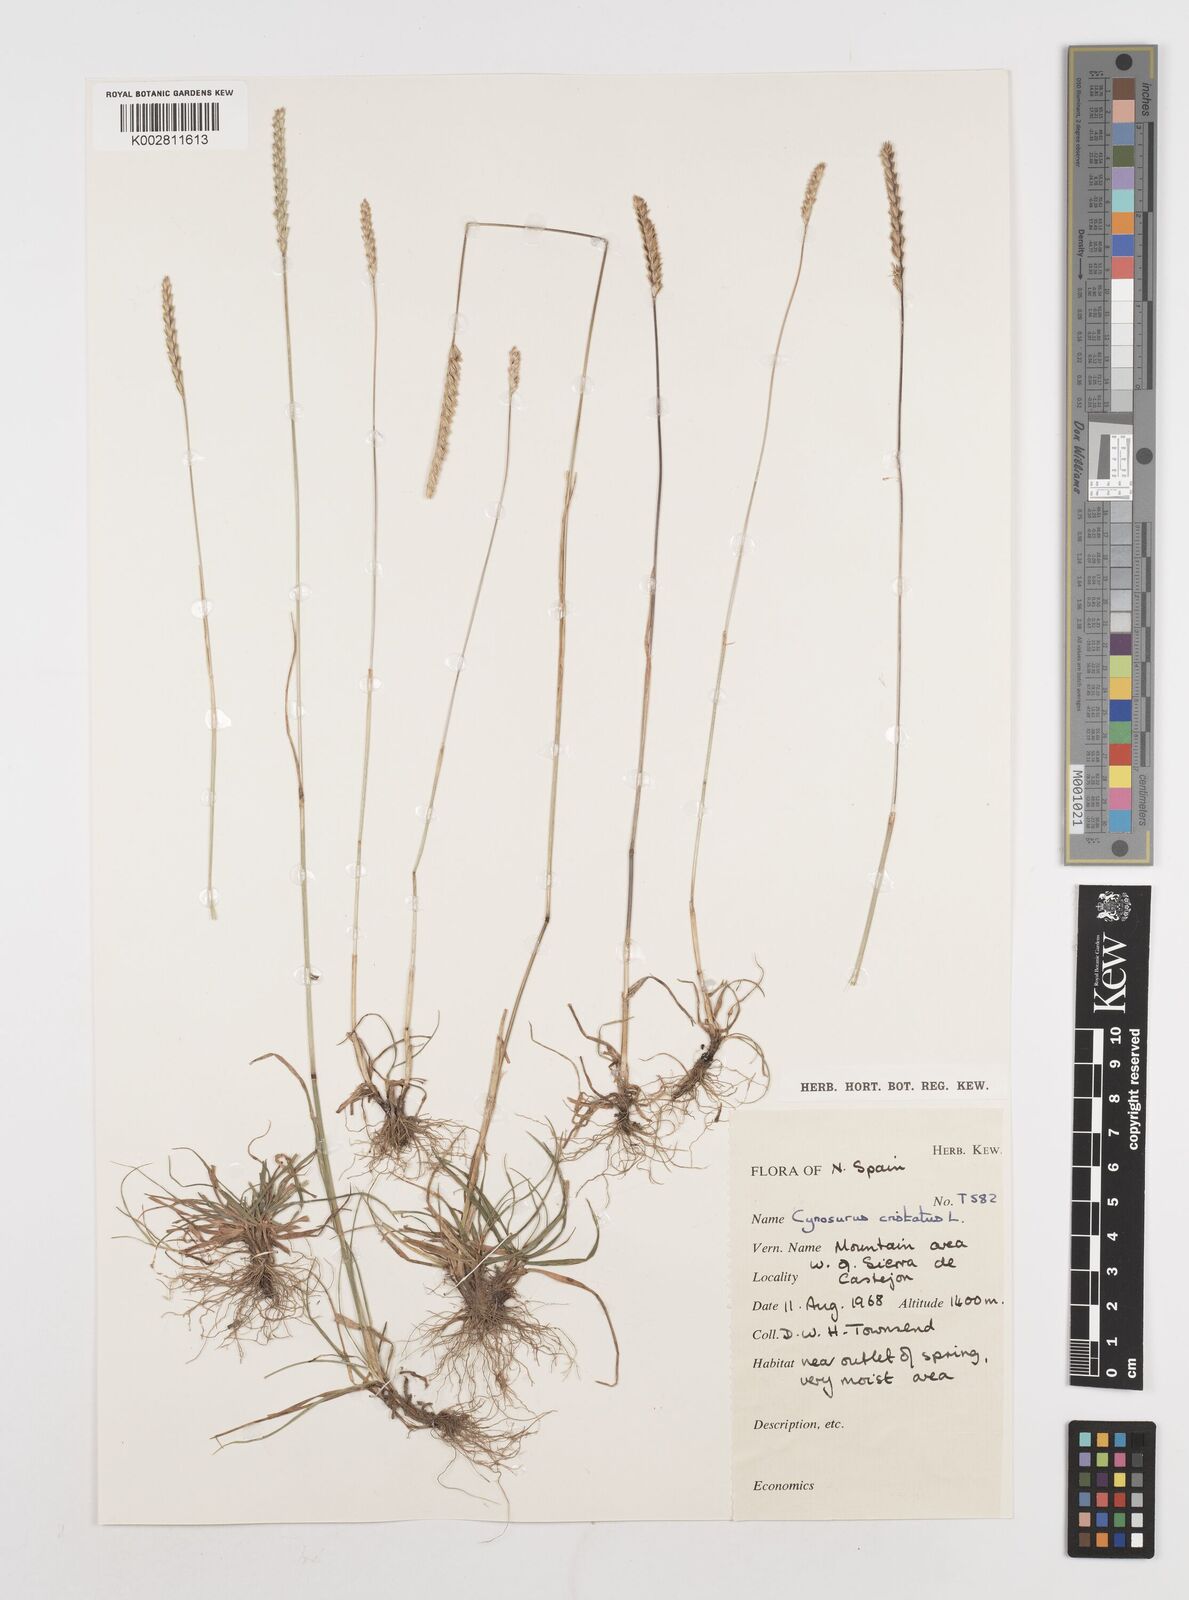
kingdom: Plantae
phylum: Tracheophyta
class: Liliopsida
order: Poales
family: Poaceae
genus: Cynosurus
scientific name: Cynosurus cristatus
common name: Crested dog's-tail
